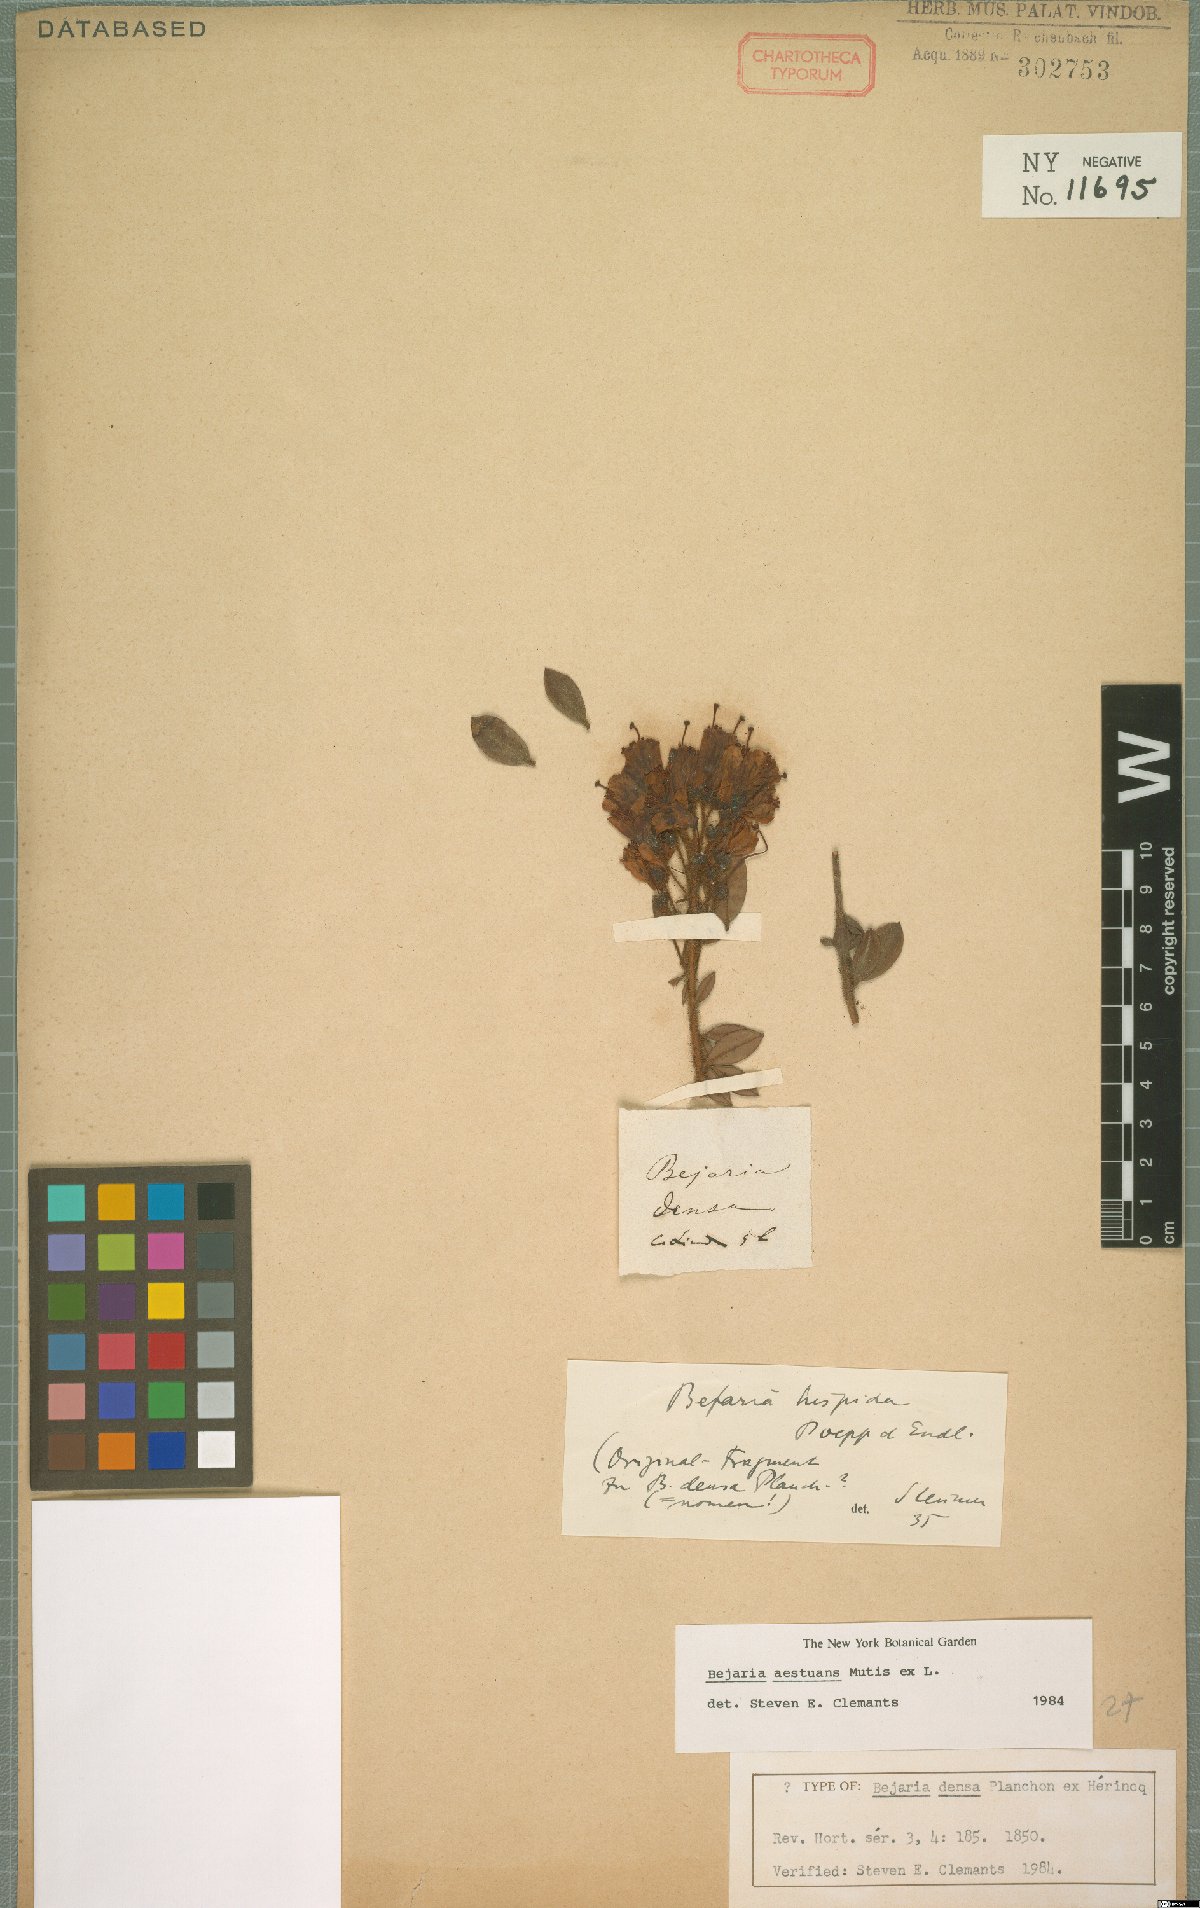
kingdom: Plantae
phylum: Tracheophyta
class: Magnoliopsida
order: Ericales
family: Ericaceae
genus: Bejaria
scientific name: Bejaria aestuans
